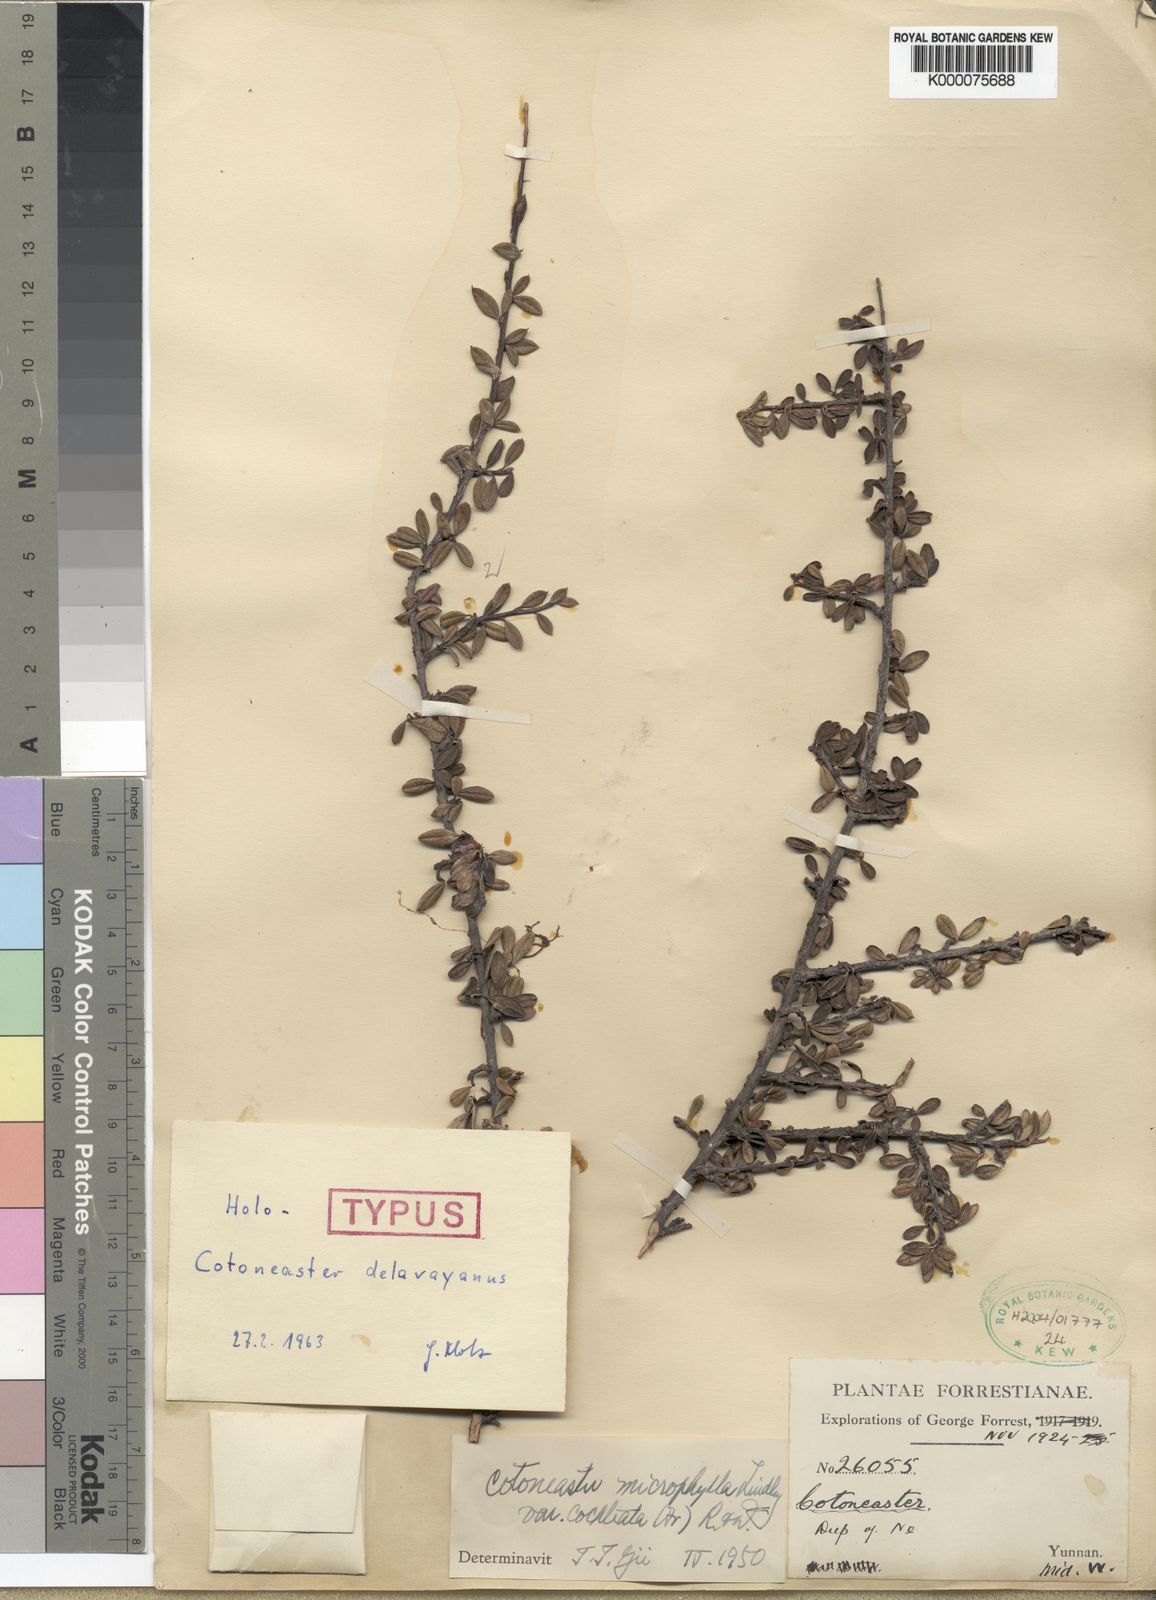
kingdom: Plantae
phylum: Tracheophyta
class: Magnoliopsida
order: Rosales
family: Rosaceae
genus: Cotoneaster
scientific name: Cotoneaster microphyllus
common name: Small-leaved cotoneaster
